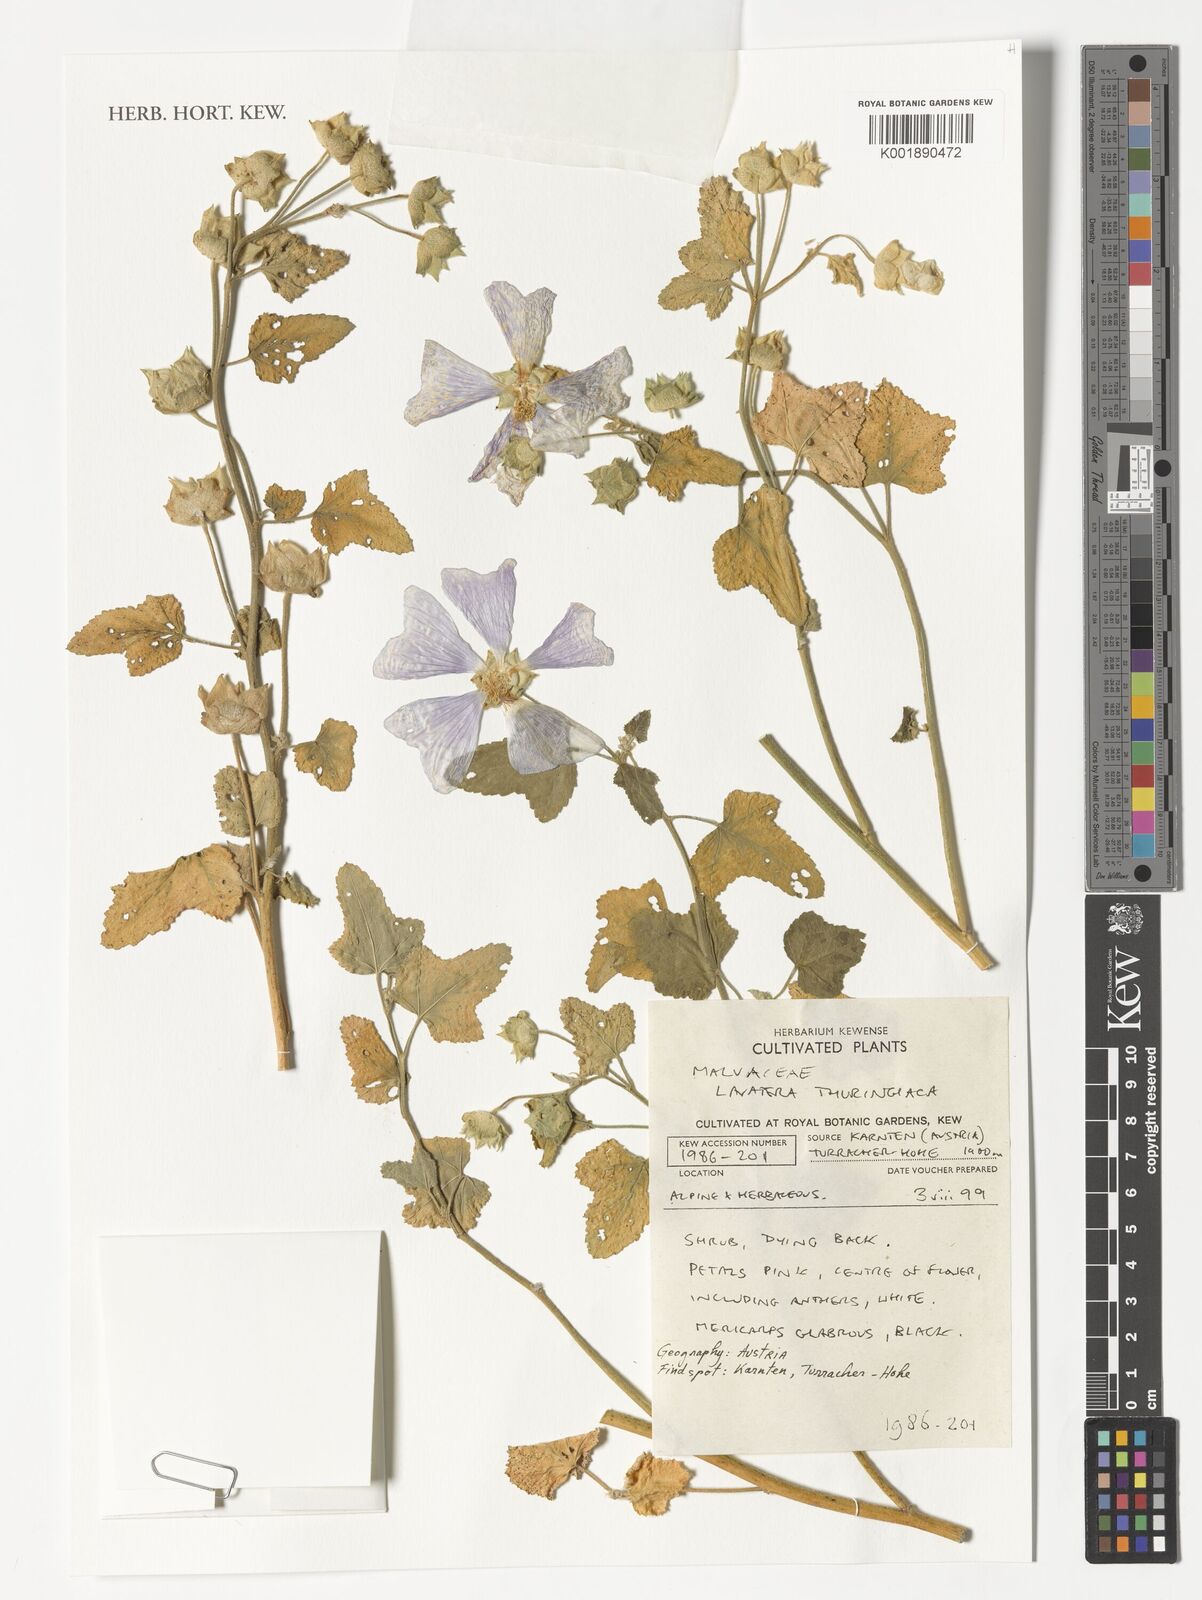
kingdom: Plantae
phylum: Tracheophyta
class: Magnoliopsida
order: Malvales
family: Malvaceae
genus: Malva
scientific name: Malva thuringiaca
